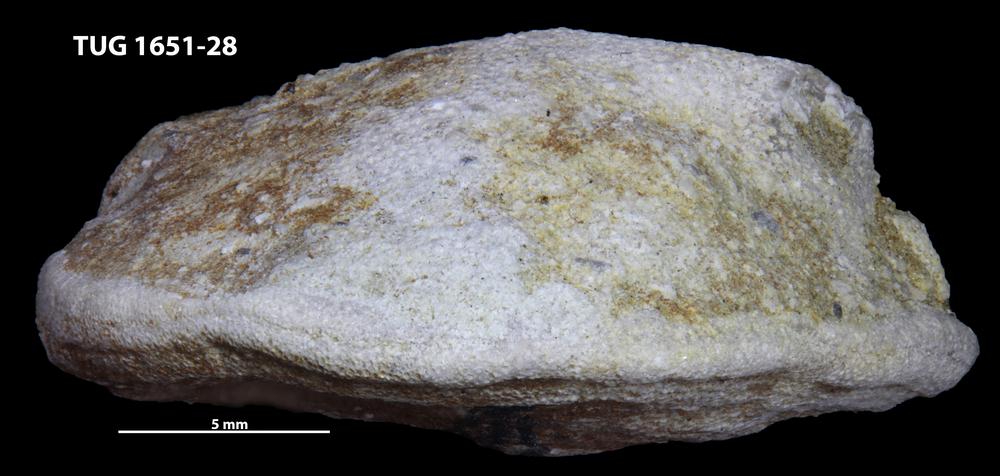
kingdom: Animalia
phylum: Bryozoa
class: Stenolaemata
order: Trepostomatida
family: Diplotrypidae
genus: Diplotrypa
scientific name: Diplotrypa petropolitana
